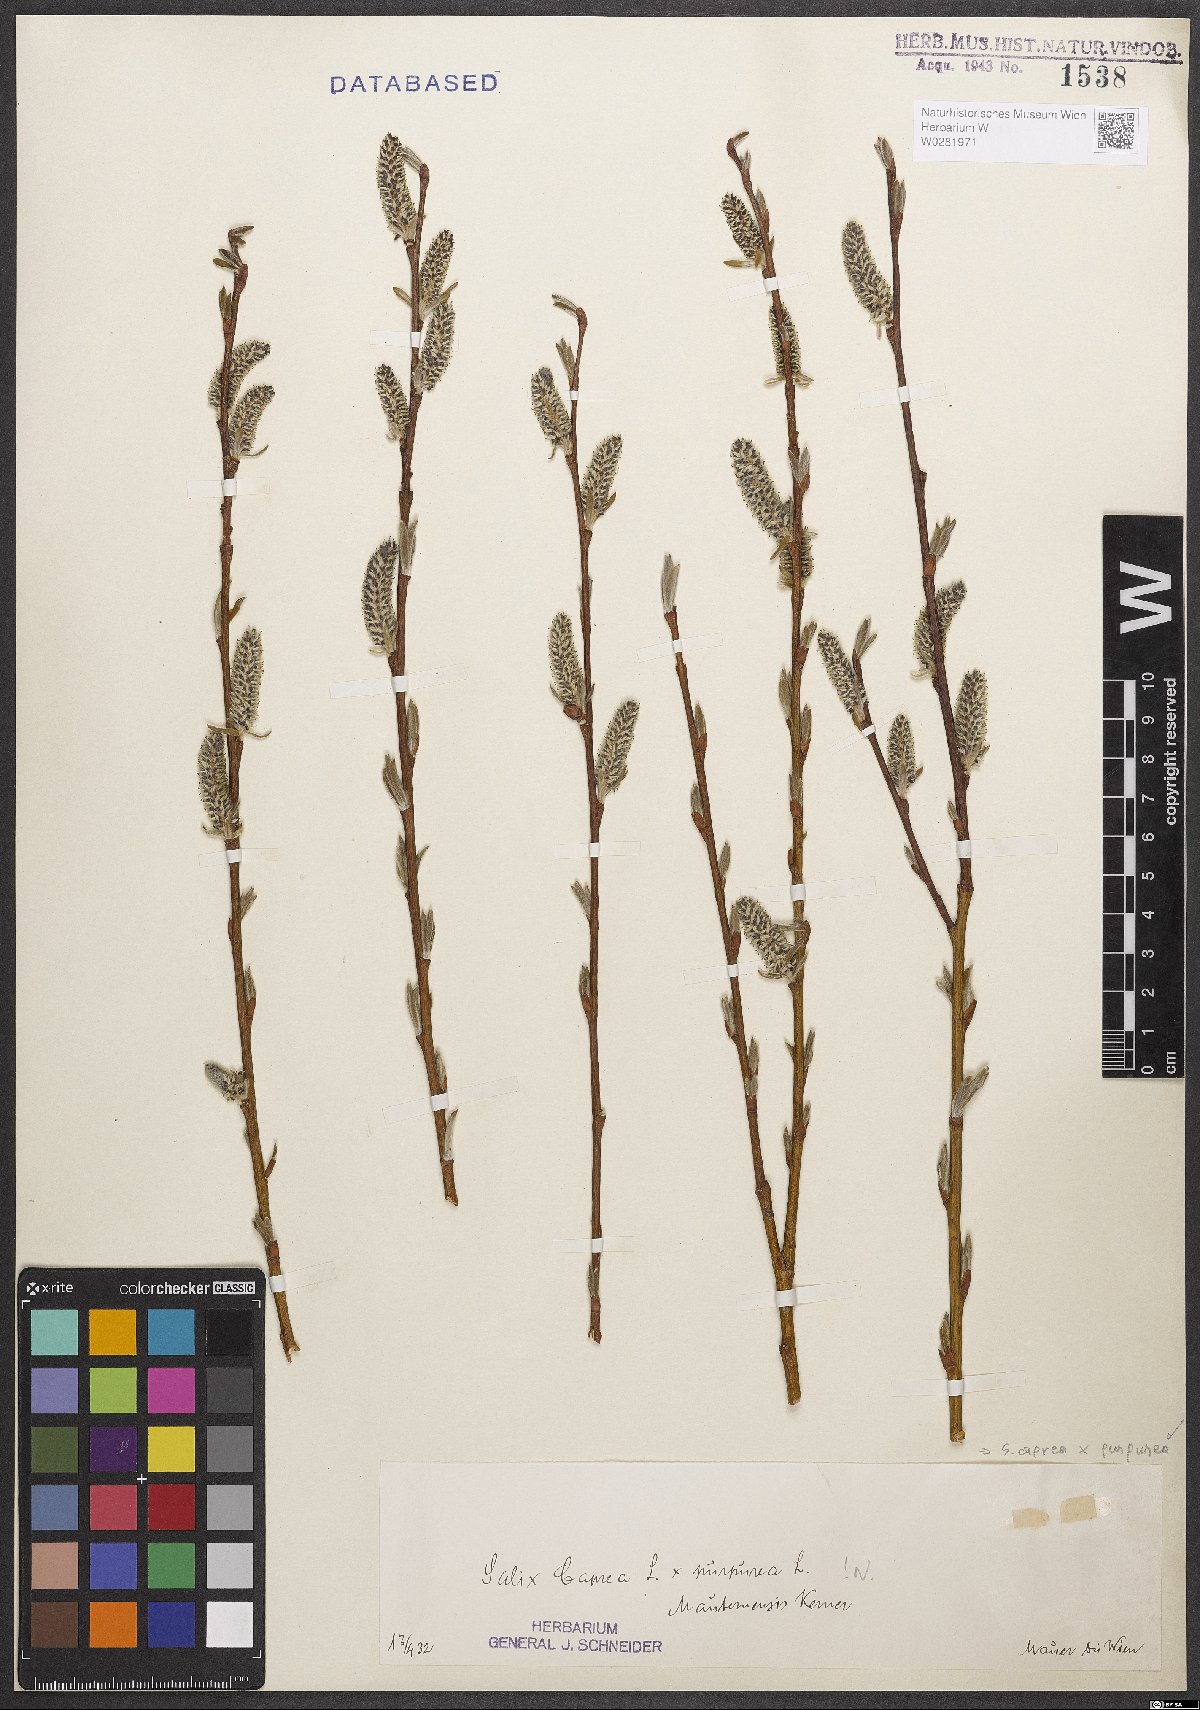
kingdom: Plantae
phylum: Tracheophyta
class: Magnoliopsida
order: Malpighiales
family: Salicaceae
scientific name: Salicaceae
